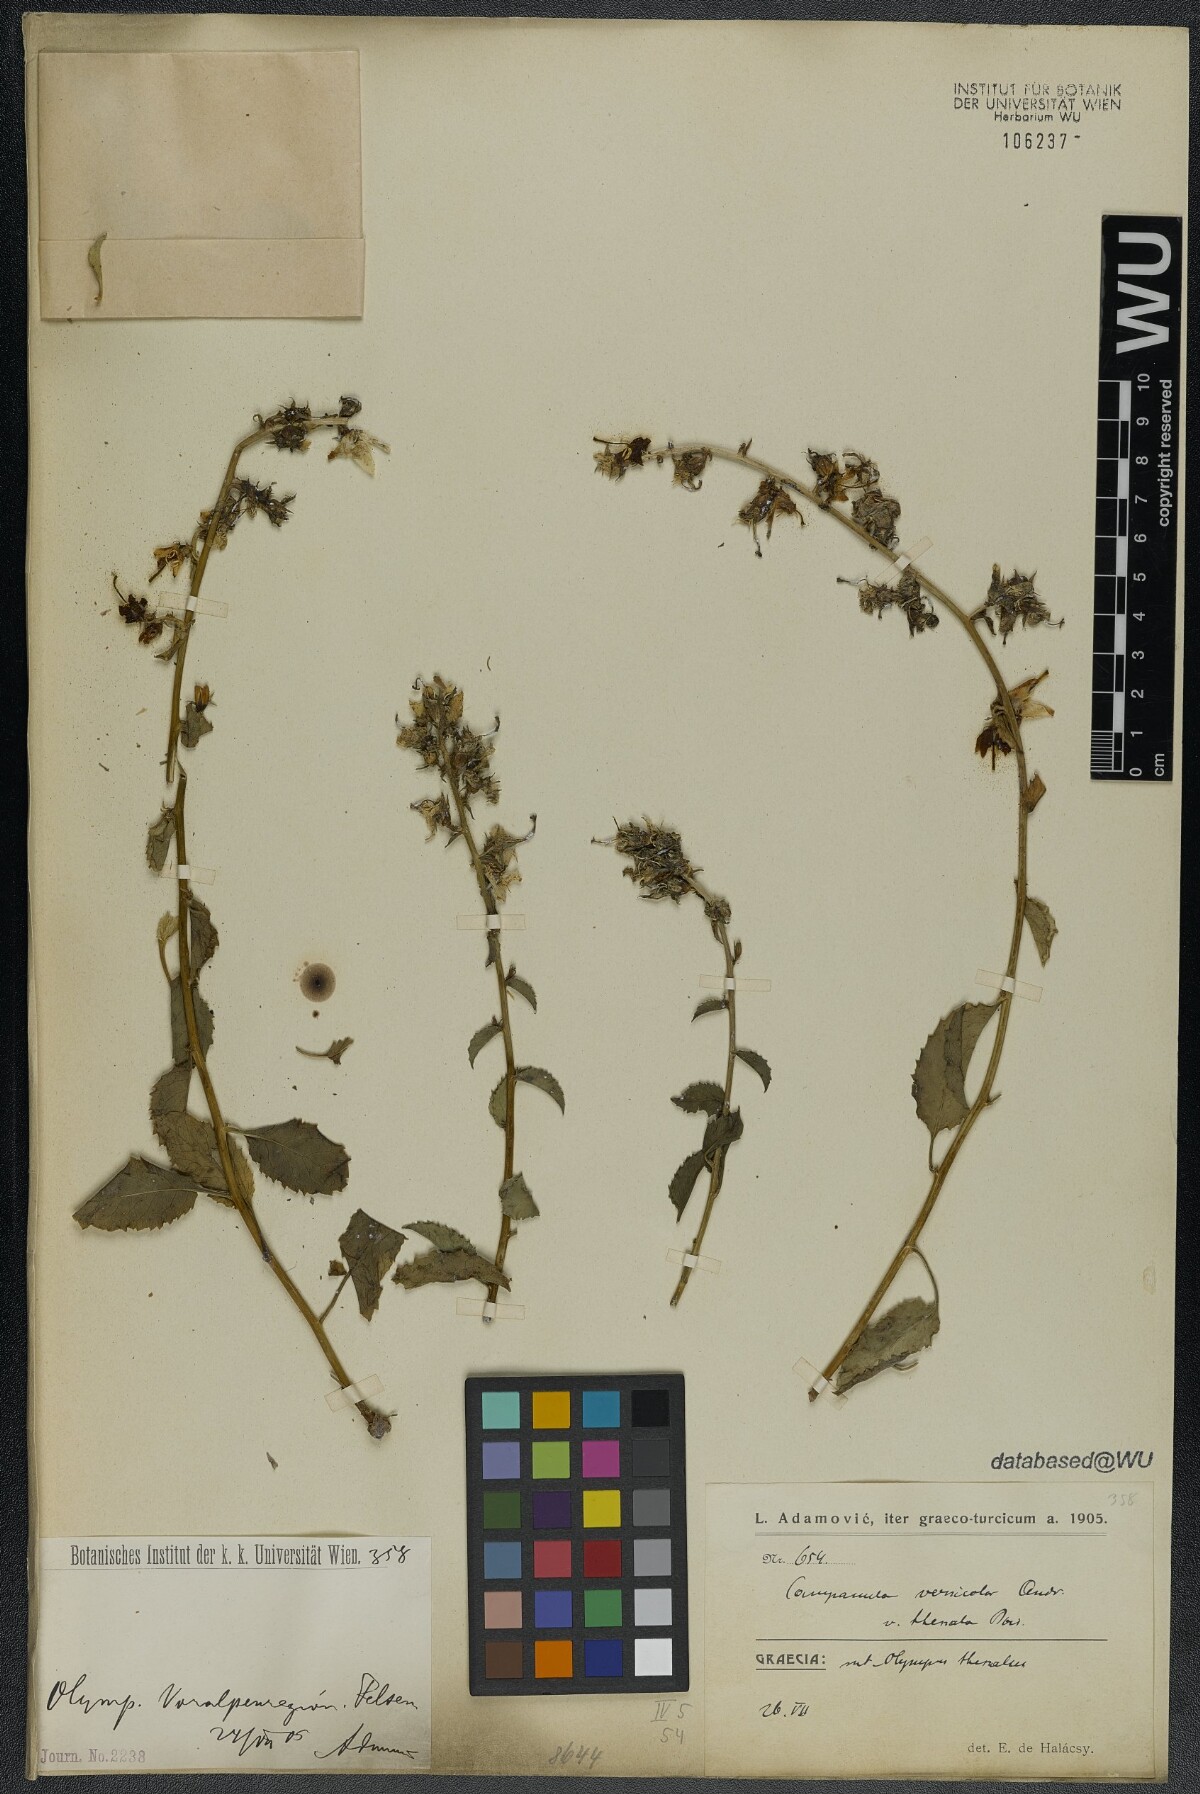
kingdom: Plantae
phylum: Tracheophyta
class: Magnoliopsida
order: Asterales
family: Campanulaceae
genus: Campanula
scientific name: Campanula versicolor
